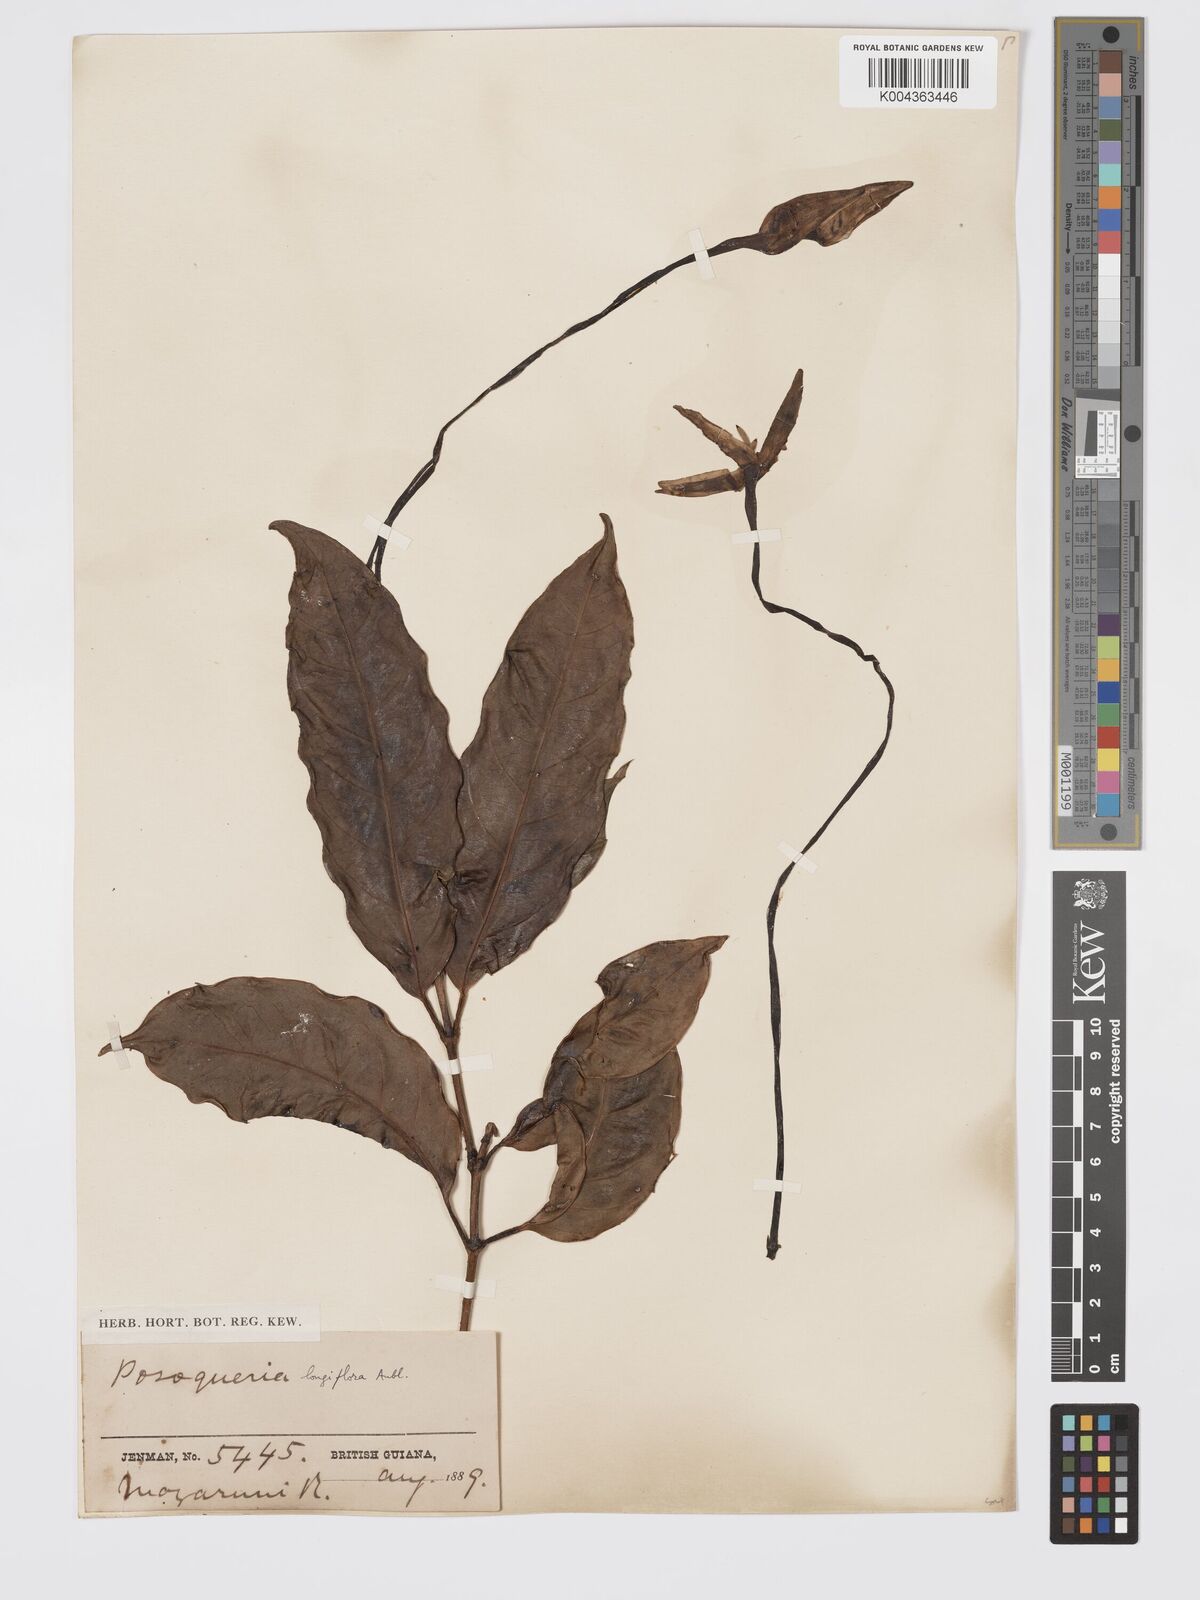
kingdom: Plantae
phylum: Tracheophyta
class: Magnoliopsida
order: Gentianales
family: Rubiaceae
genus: Posoqueria
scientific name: Posoqueria
